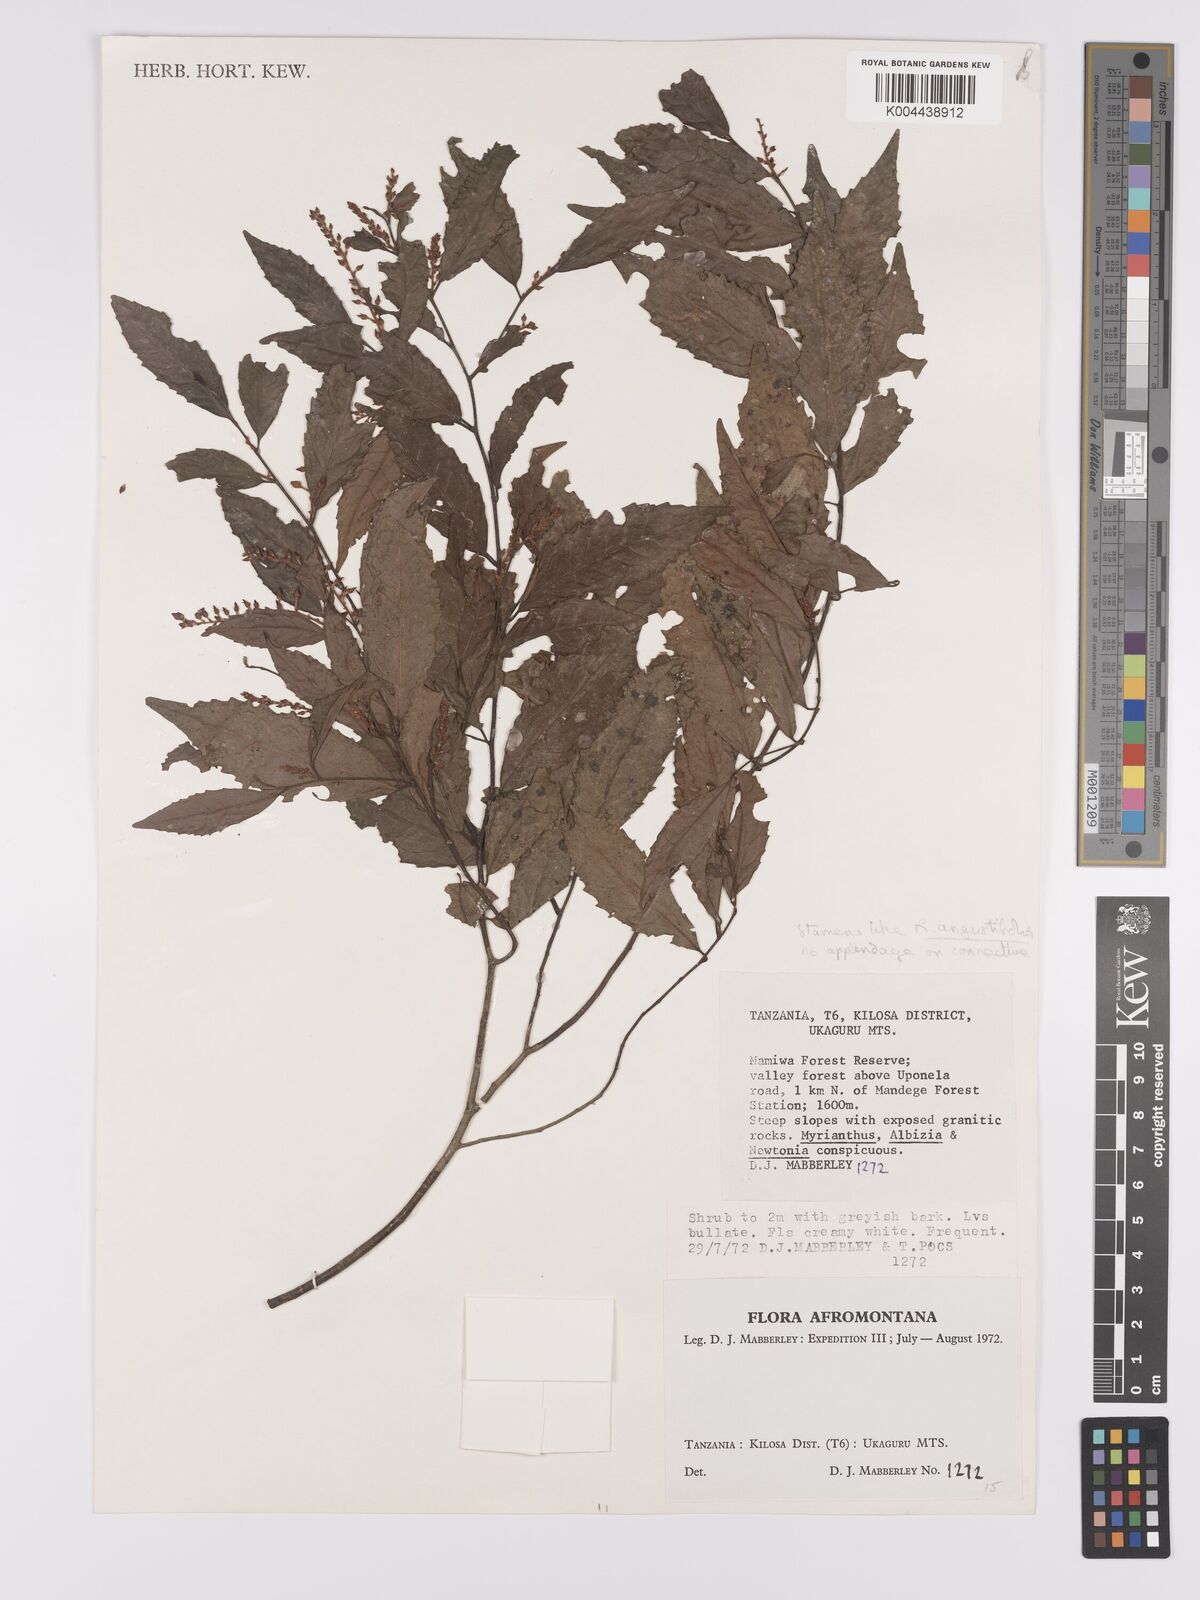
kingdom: Plantae
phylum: Tracheophyta
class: Magnoliopsida
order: Malpighiales
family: Violaceae
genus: Rinorea
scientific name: Rinorea angustifolia
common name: White violet-bush
